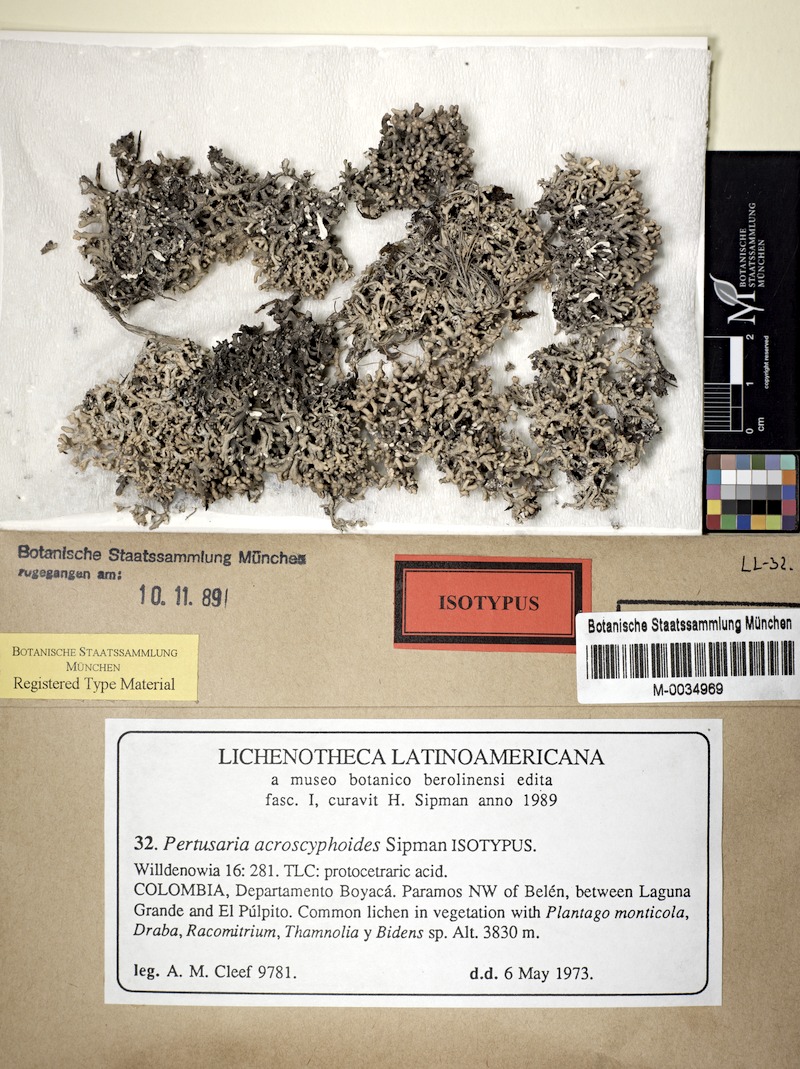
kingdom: Fungi
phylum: Ascomycota
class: Lecanoromycetes
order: Pertusariales
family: Pertusariaceae
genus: Lepra
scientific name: Lepra acroscyphoides
